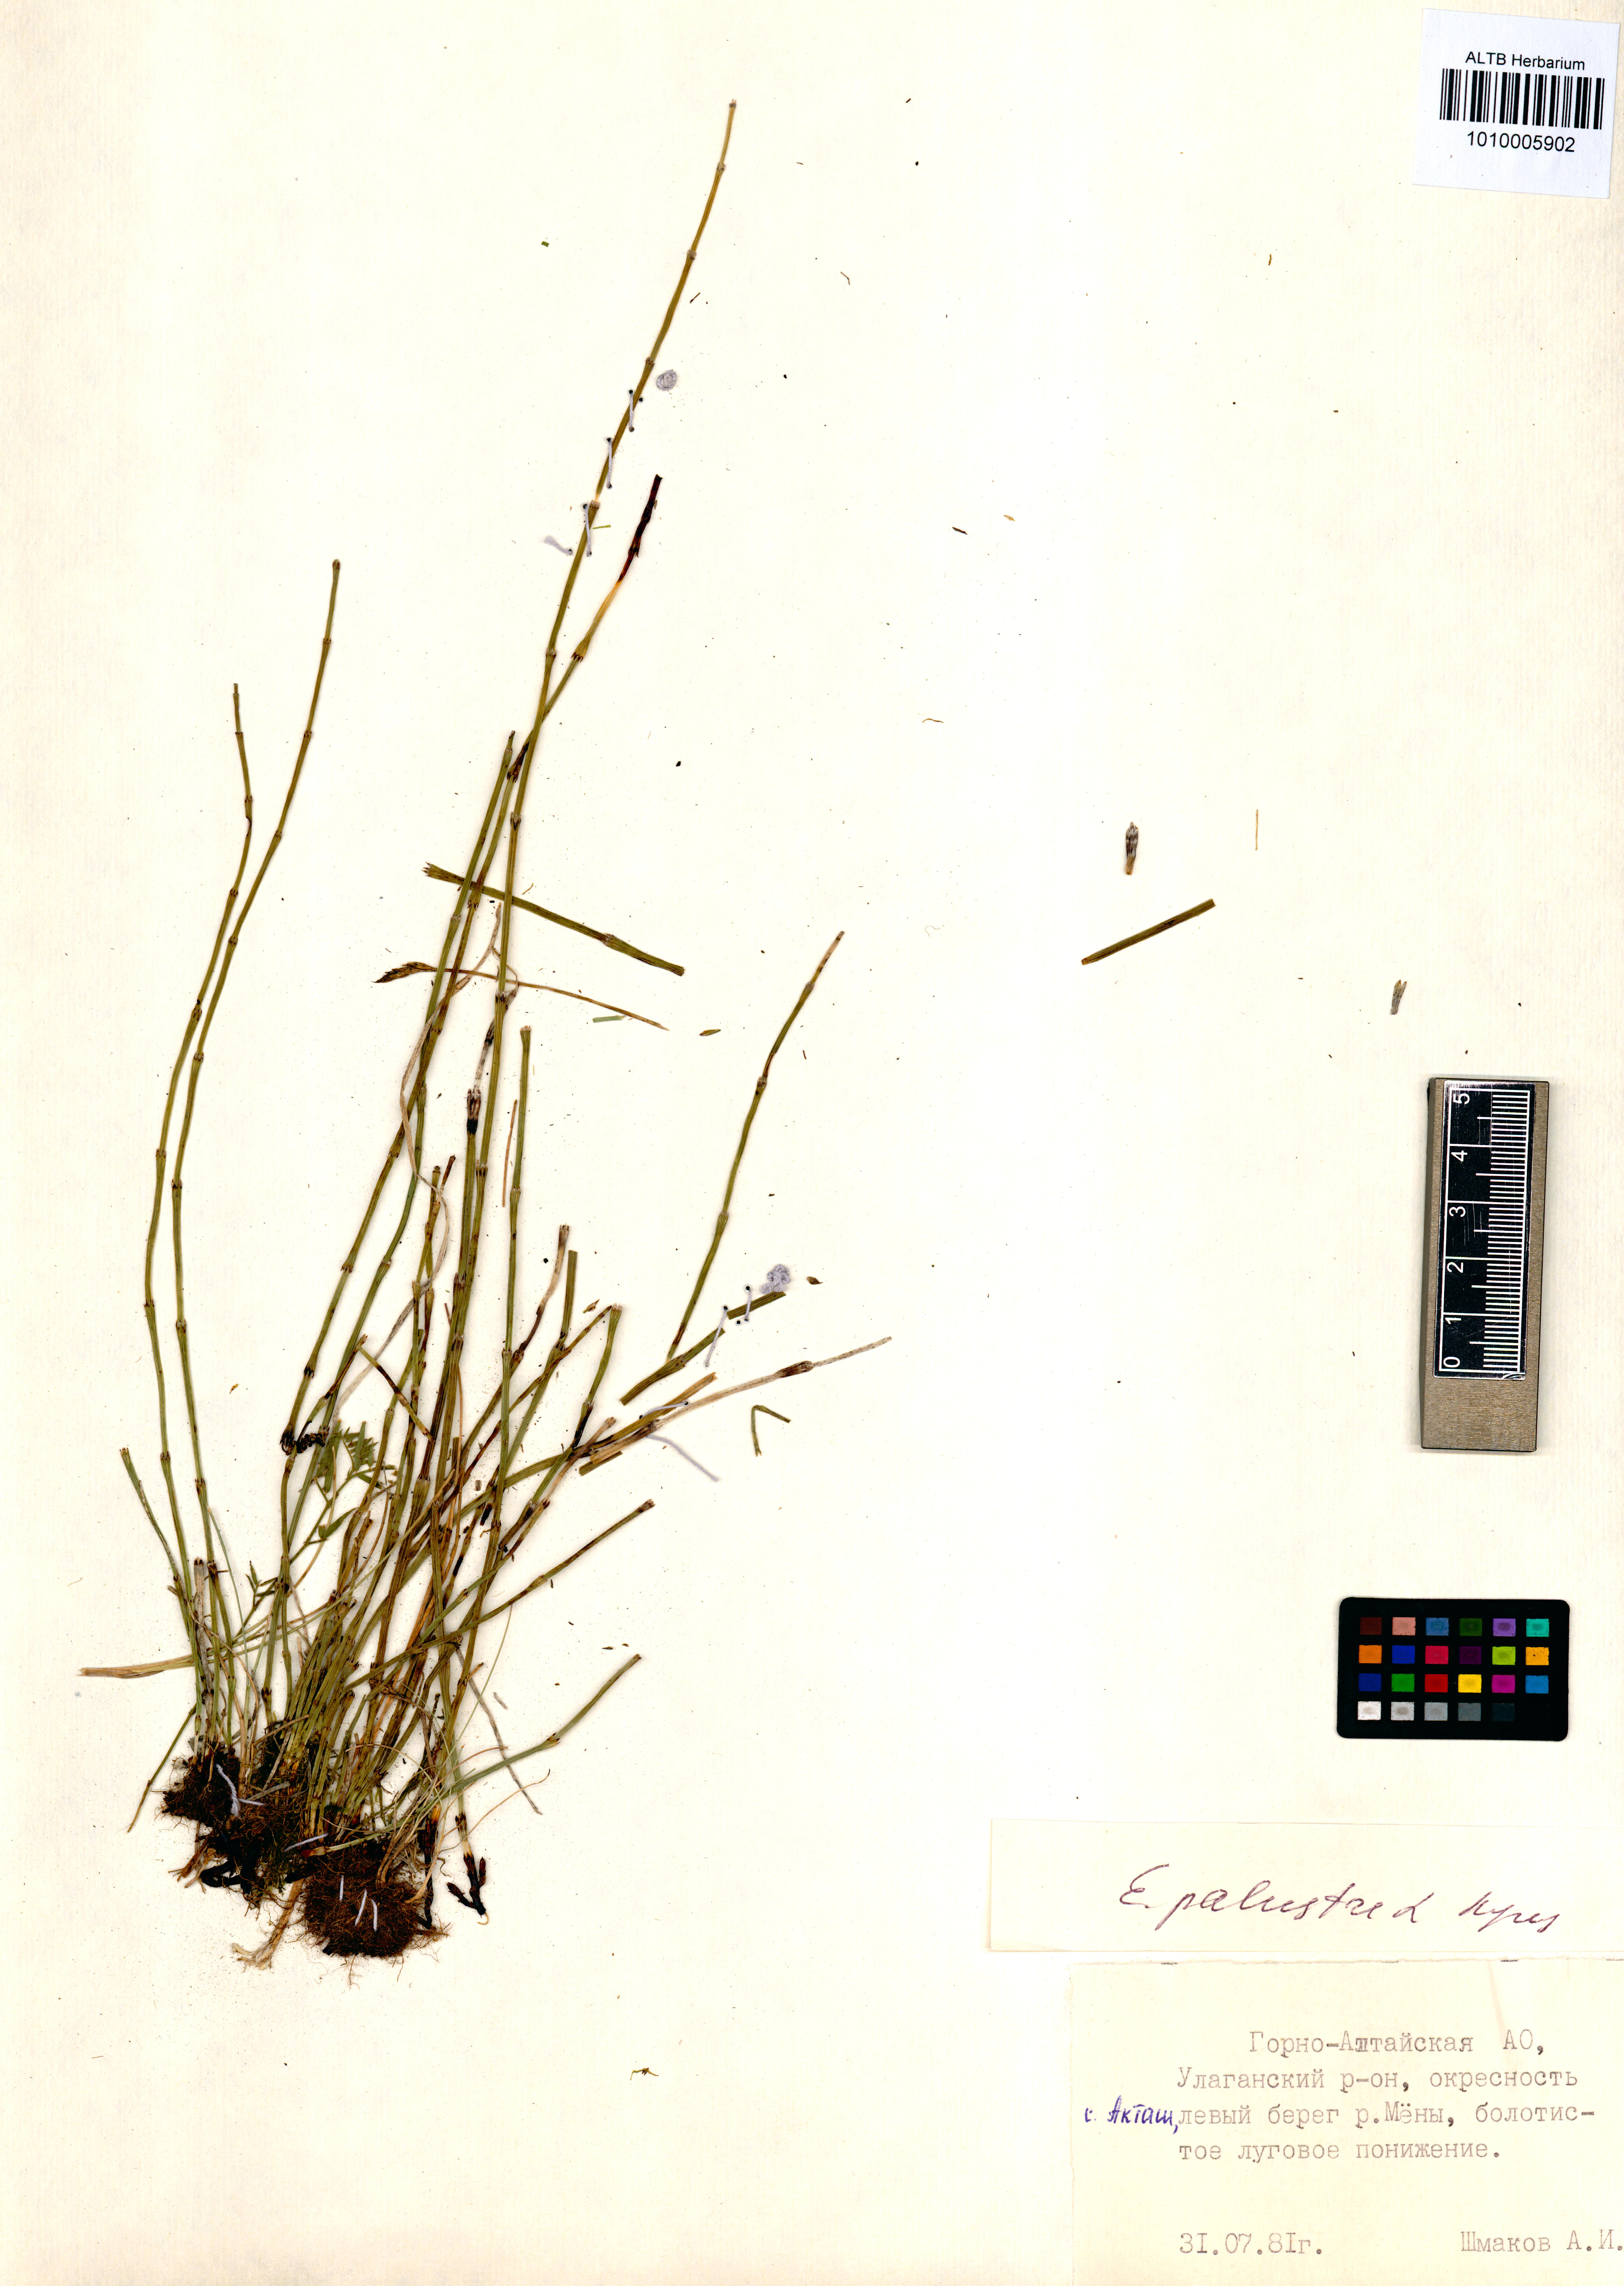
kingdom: Plantae
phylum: Tracheophyta
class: Polypodiopsida
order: Equisetales
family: Equisetaceae
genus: Equisetum
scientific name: Equisetum palustre
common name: Marsh horsetail
